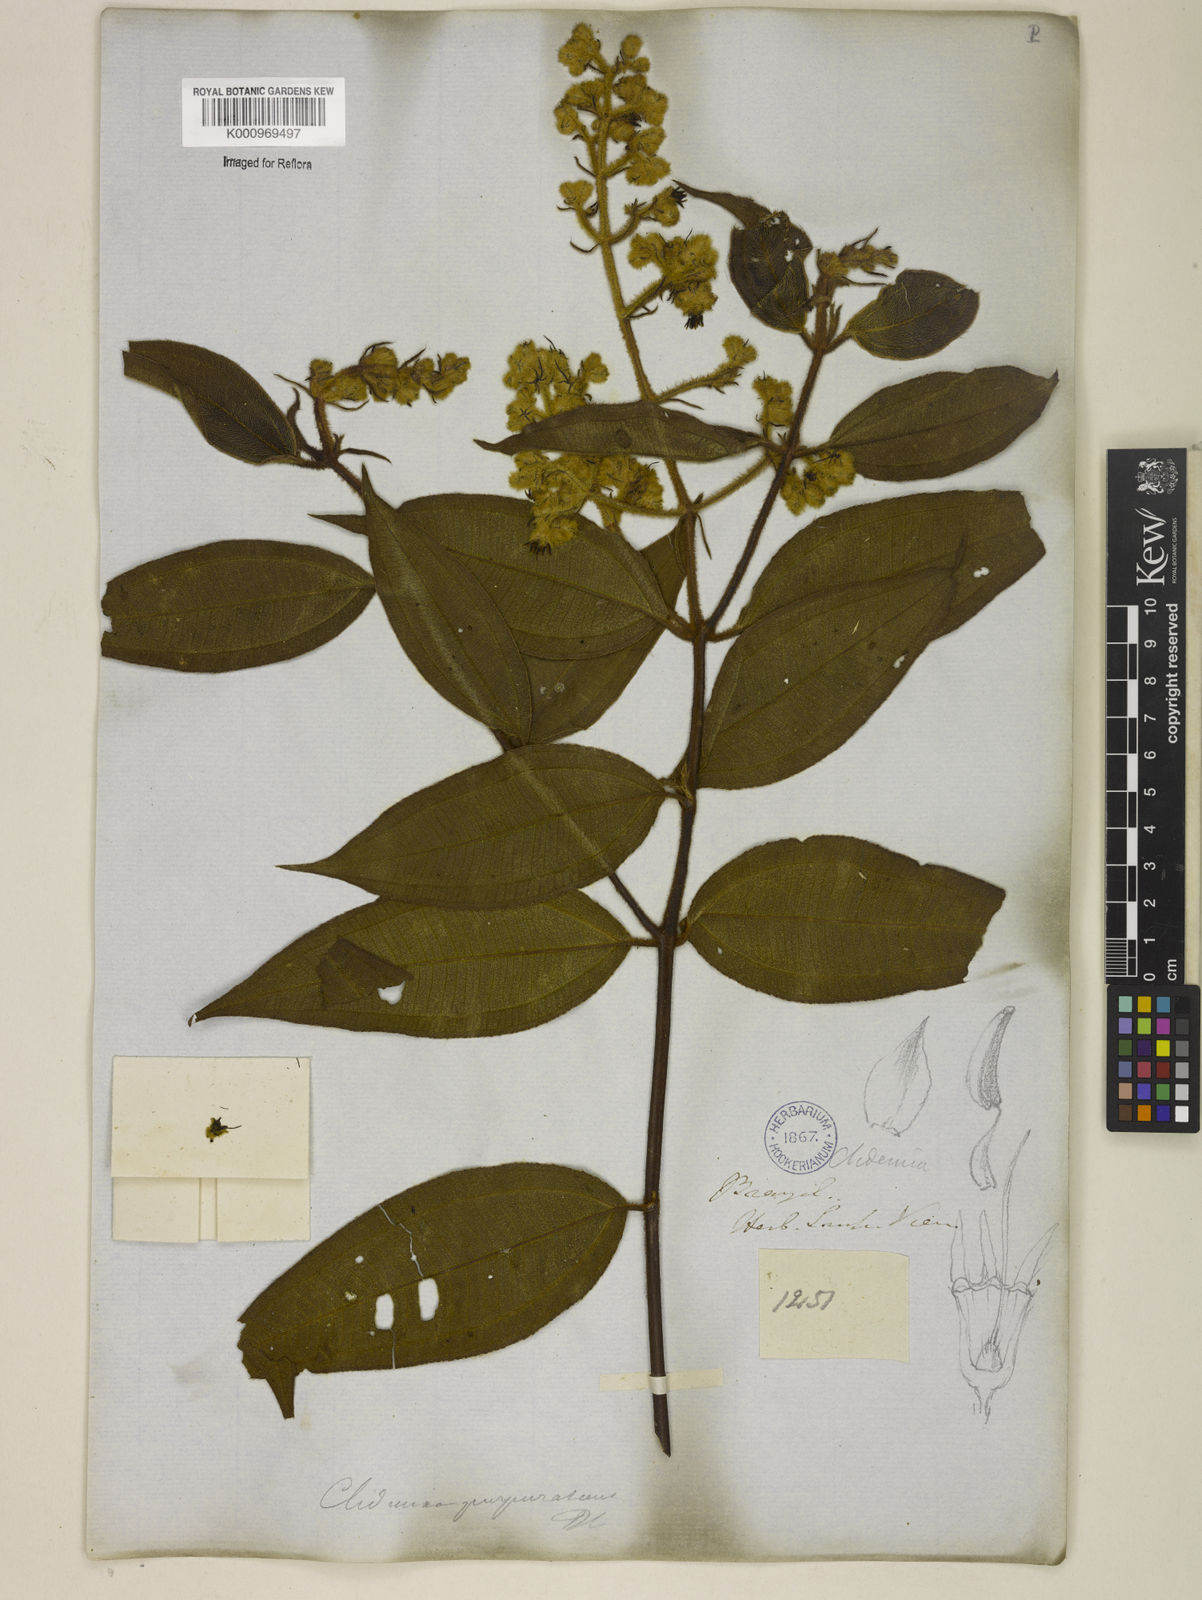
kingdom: Plantae
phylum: Tracheophyta
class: Magnoliopsida
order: Myrtales
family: Melastomataceae
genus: Miconia
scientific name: Miconia microstachya
